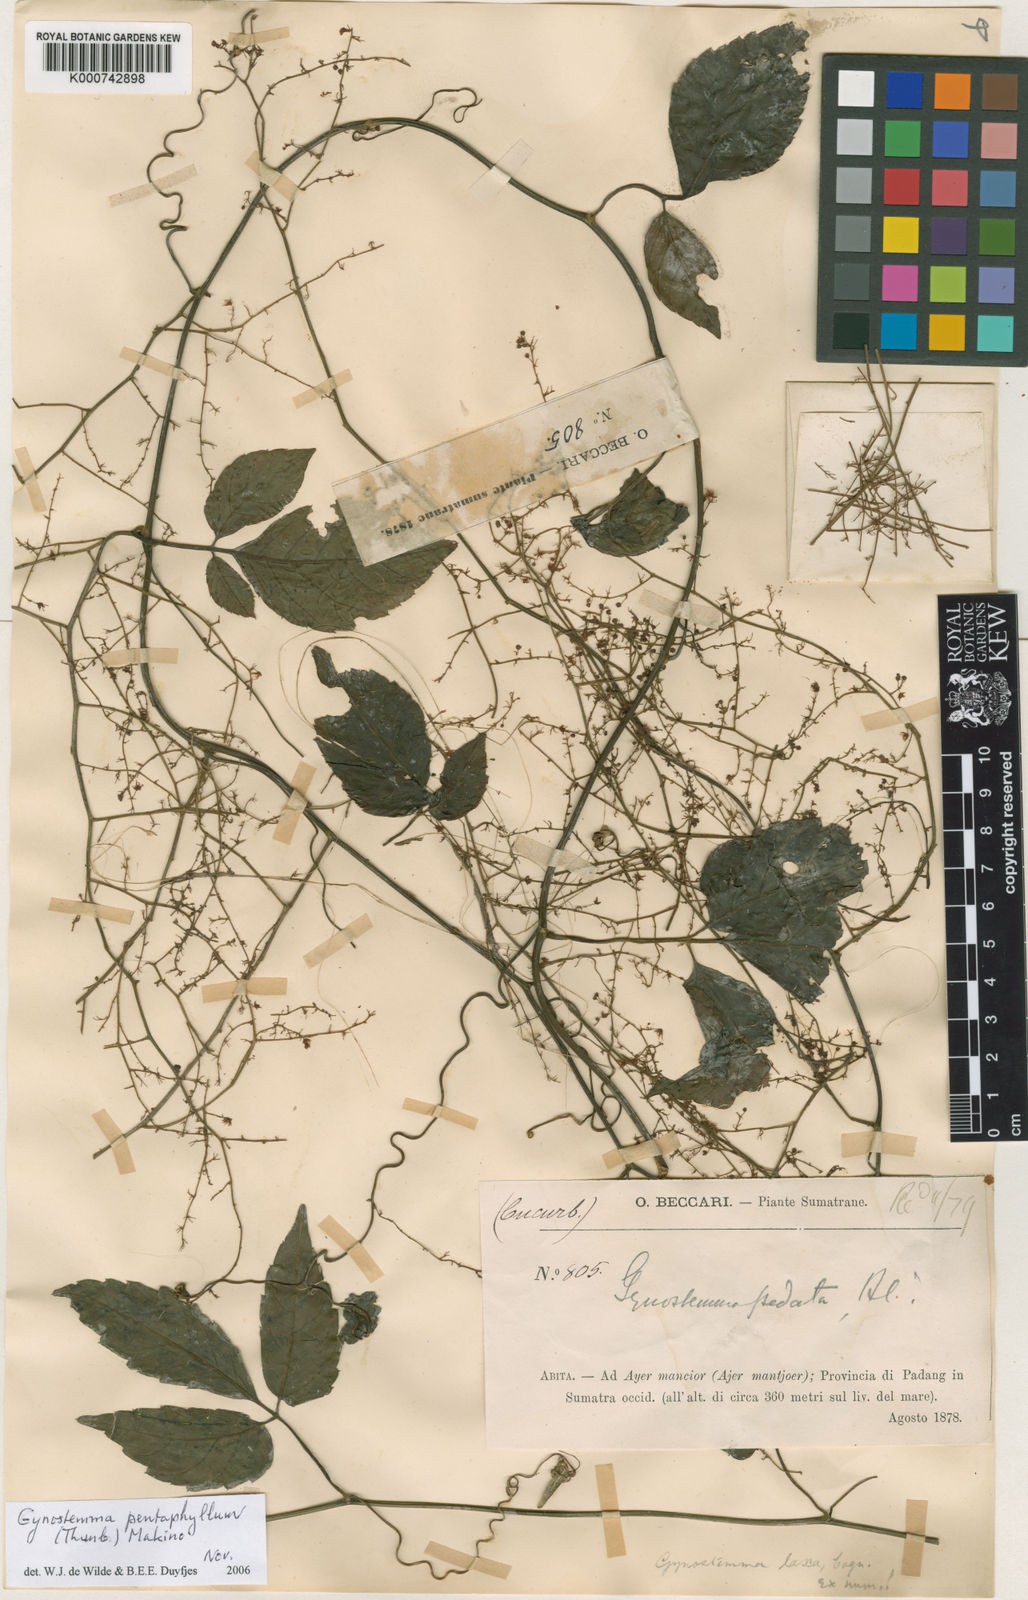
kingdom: Plantae
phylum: Tracheophyta
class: Magnoliopsida
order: Cucurbitales
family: Cucurbitaceae
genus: Gynostemma
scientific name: Gynostemma pentaphyllum
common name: Gynostemma
